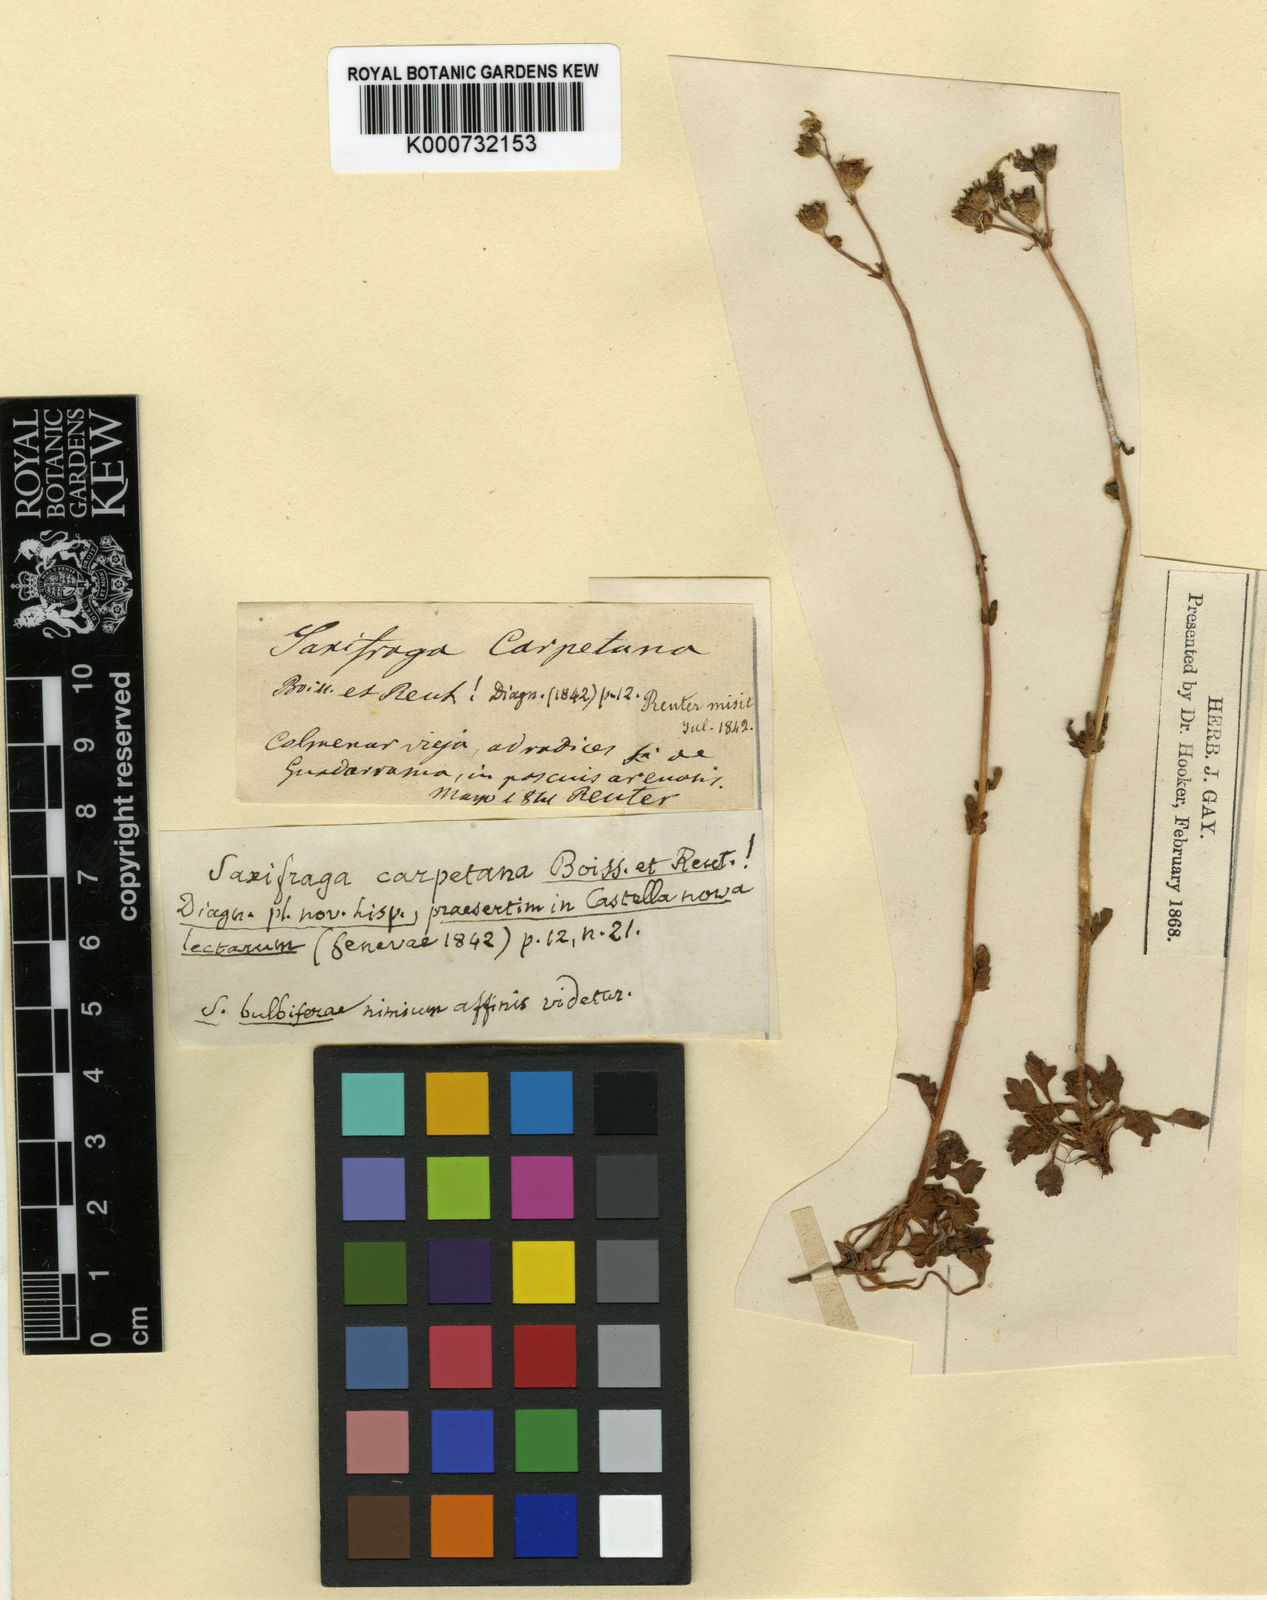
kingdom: Plantae
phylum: Tracheophyta
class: Magnoliopsida
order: Saxifragales
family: Saxifragaceae
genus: Saxifraga
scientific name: Saxifraga
